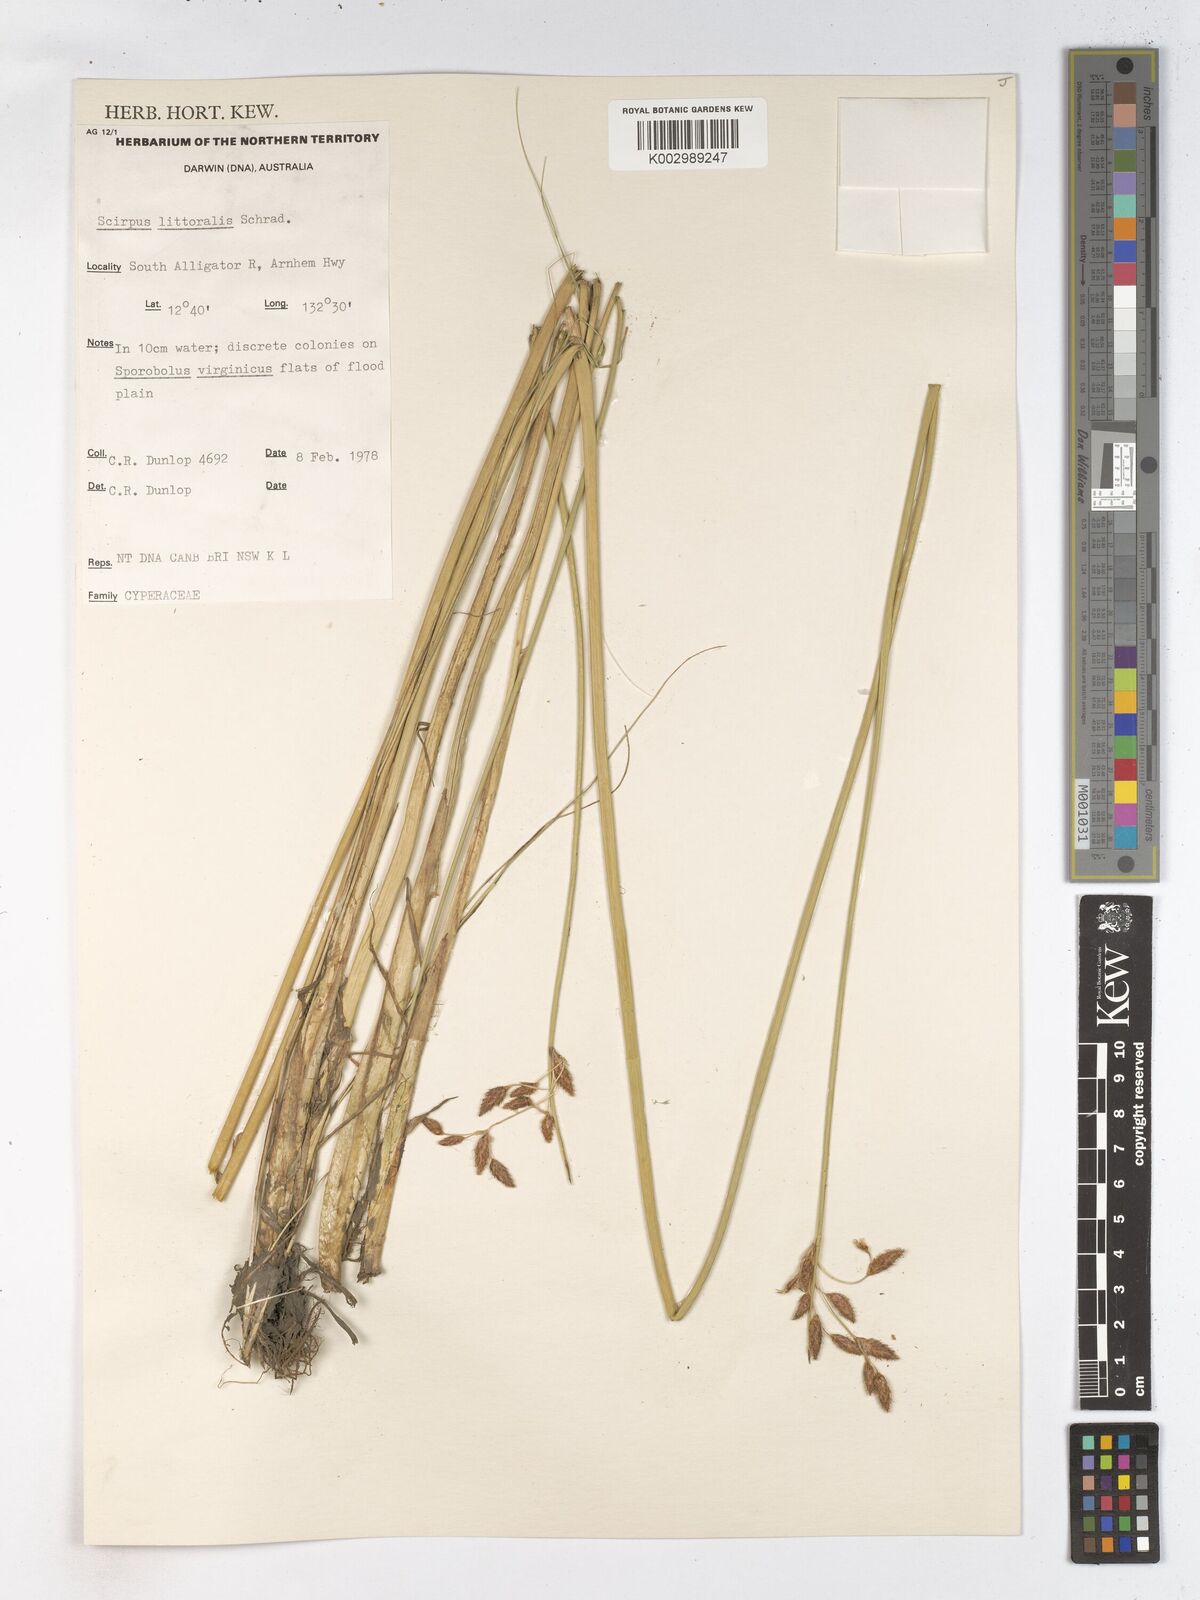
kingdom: Plantae
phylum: Tracheophyta
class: Liliopsida
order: Poales
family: Cyperaceae
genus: Schoenoplectus
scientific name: Schoenoplectus litoralis
